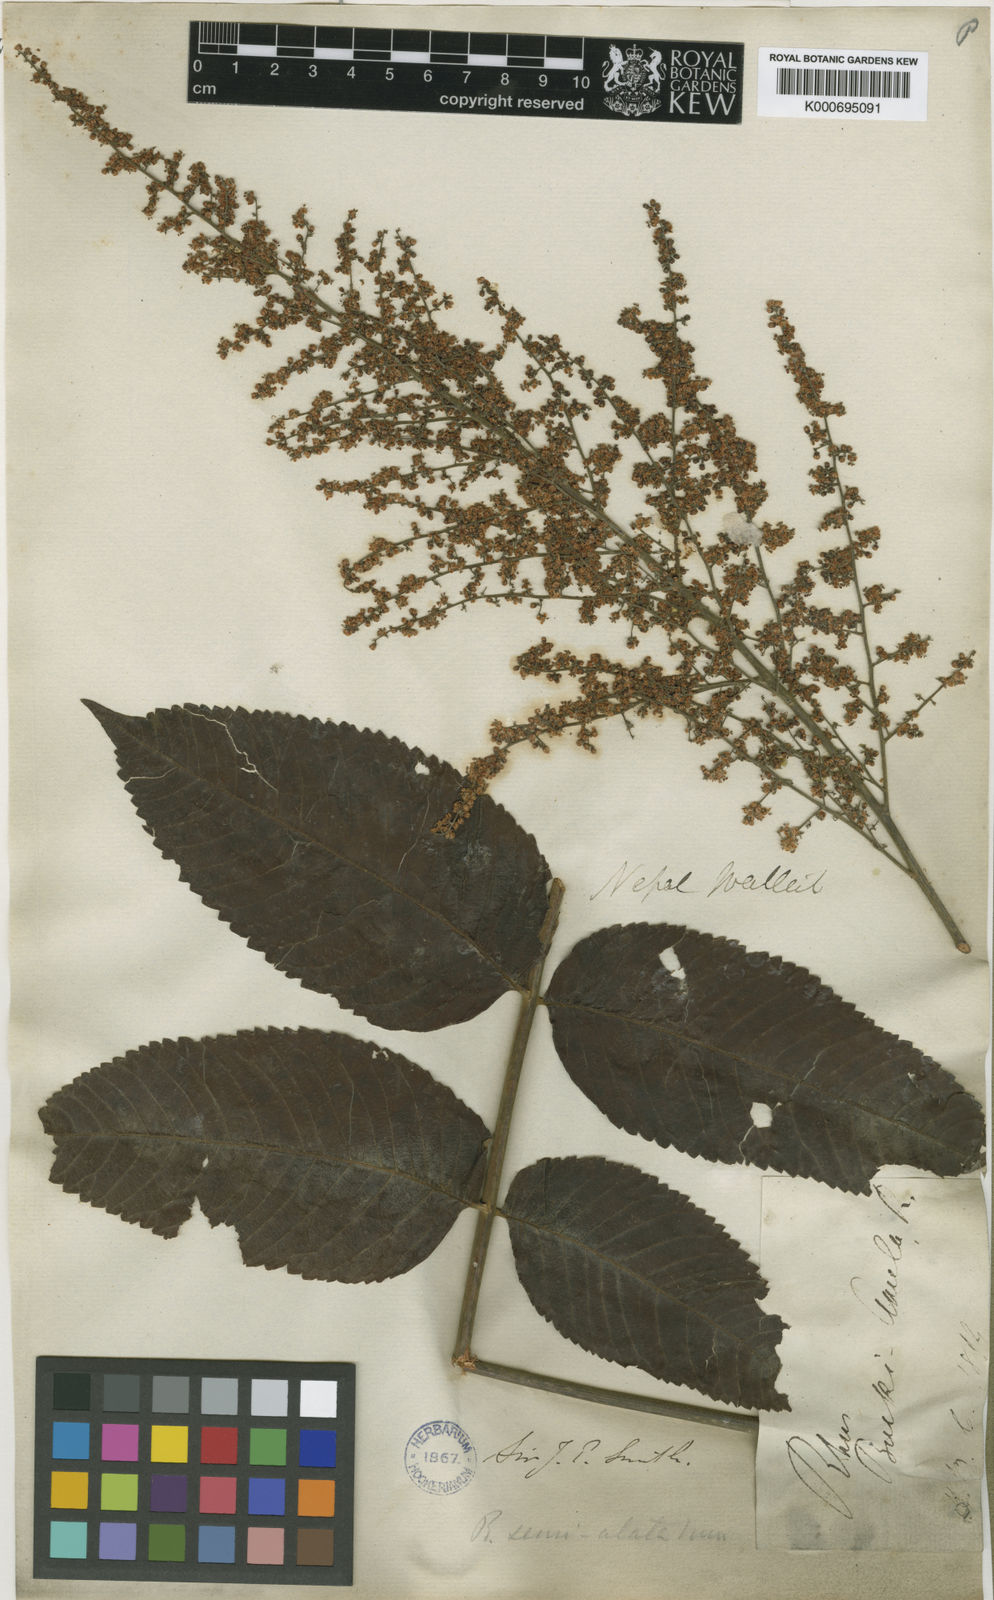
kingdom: Plantae
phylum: Tracheophyta
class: Magnoliopsida
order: Sapindales
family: Anacardiaceae
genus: Rhus
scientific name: Rhus chinensis
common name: Chinese gall
